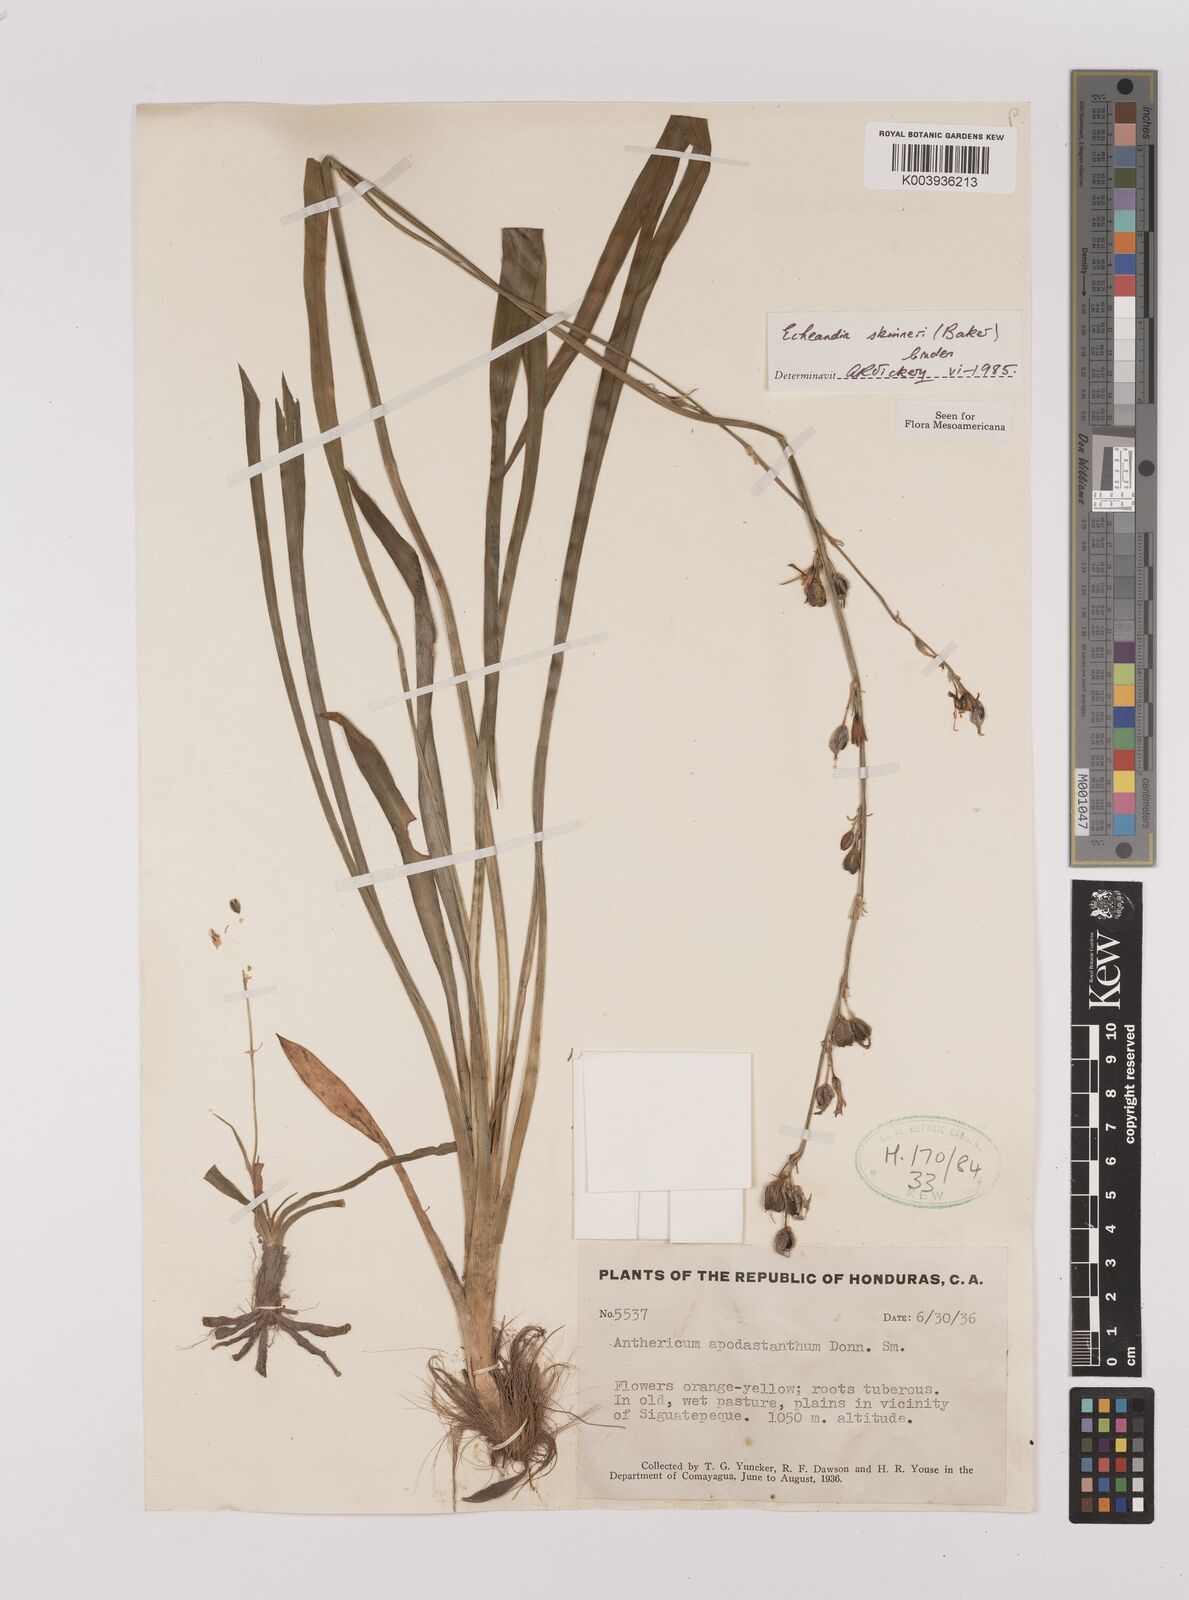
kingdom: Plantae
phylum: Tracheophyta
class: Liliopsida
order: Asparagales
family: Asparagaceae
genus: Echeandia
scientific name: Echeandia skinneri
